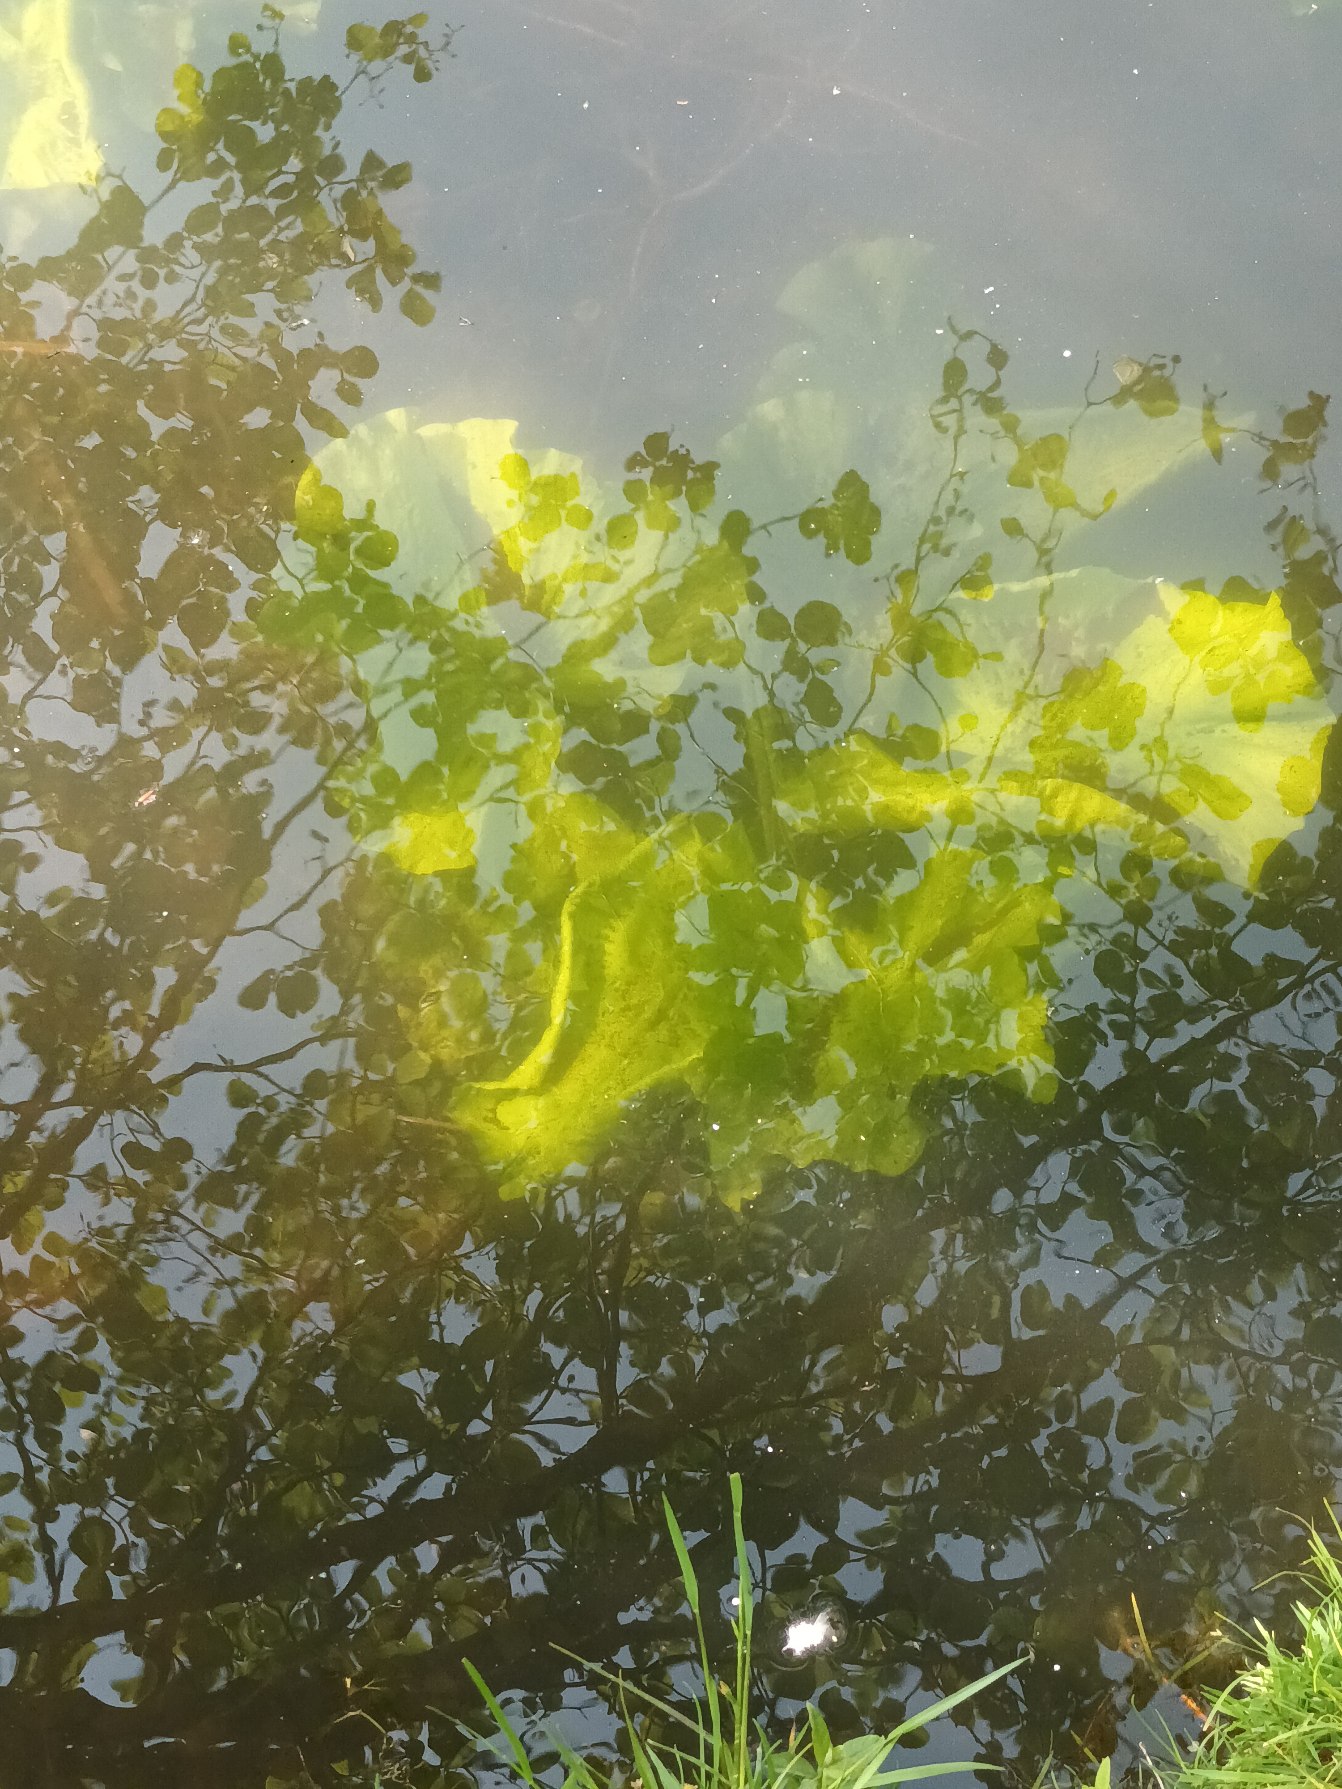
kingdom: Plantae
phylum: Tracheophyta
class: Magnoliopsida
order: Nymphaeales
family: Nymphaeaceae
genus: Nuphar
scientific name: Nuphar lutea
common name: Gul åkande
